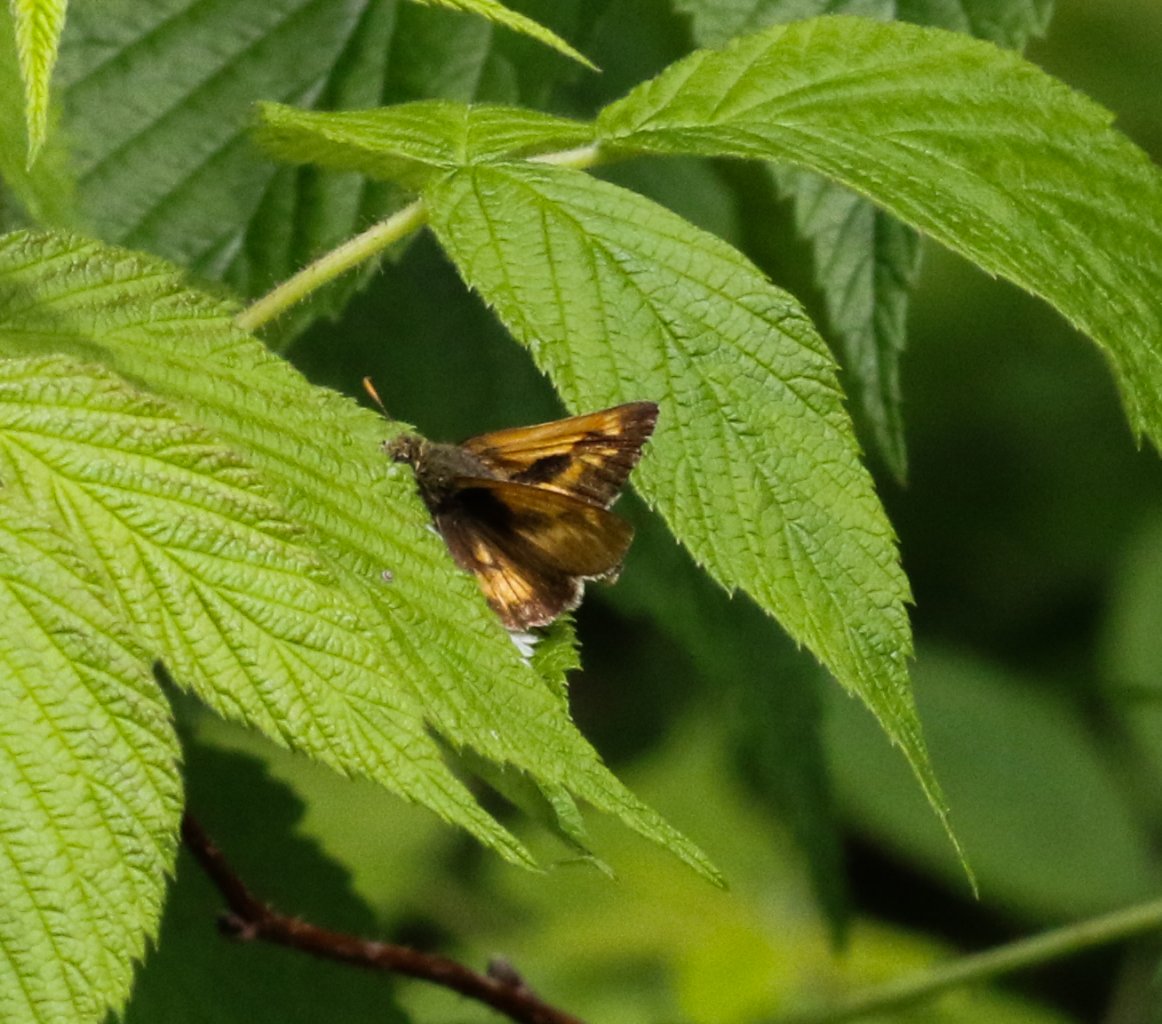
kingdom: Animalia
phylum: Arthropoda
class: Insecta
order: Lepidoptera
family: Hesperiidae
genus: Polites
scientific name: Polites
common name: Long Dash Skipper
